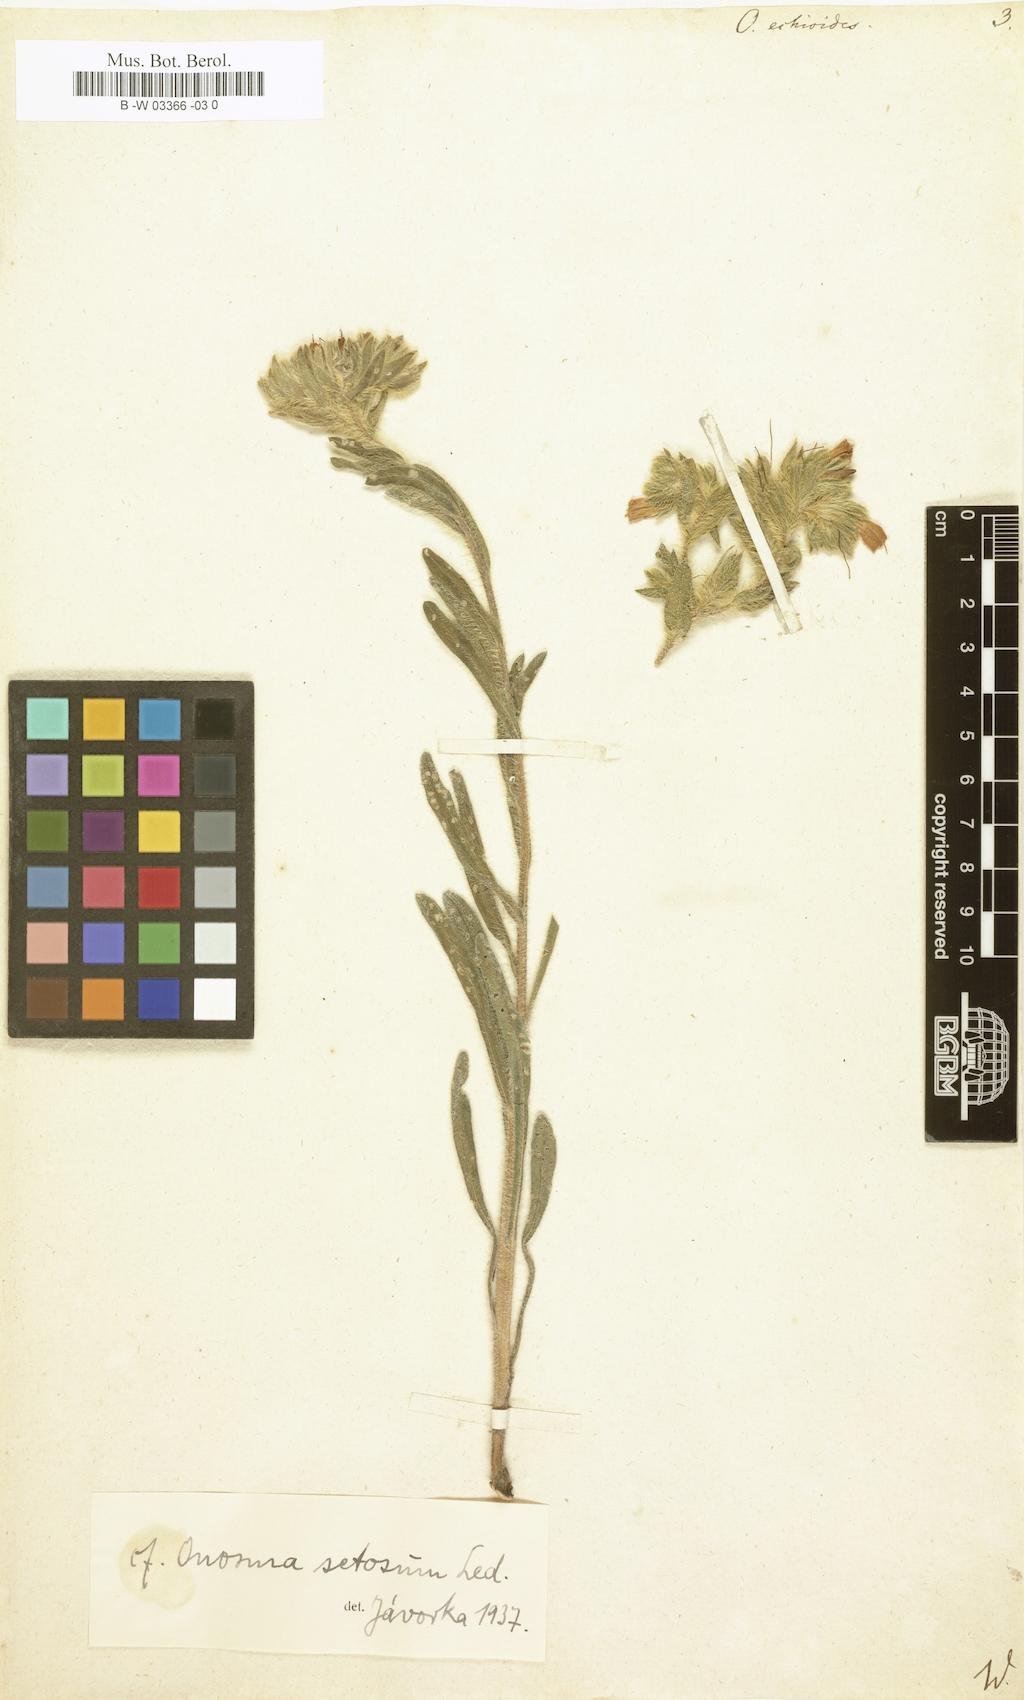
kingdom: Plantae
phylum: Tracheophyta
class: Magnoliopsida
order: Boraginales
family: Boraginaceae
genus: Onosma
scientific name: Onosma echioides
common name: Goldendrop
